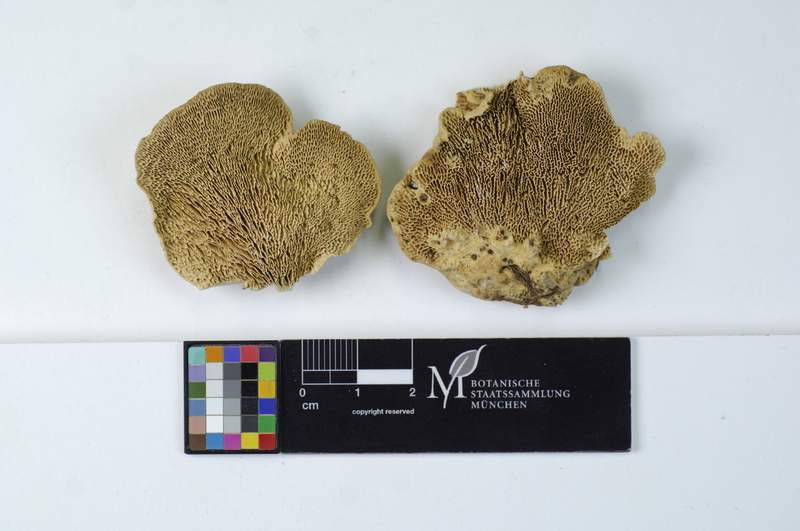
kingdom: Fungi
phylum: Basidiomycota
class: Agaricomycetes
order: Polyporales
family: Polyporaceae
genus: Trametes
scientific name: Trametes gibbosa
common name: Lumpy bracket
